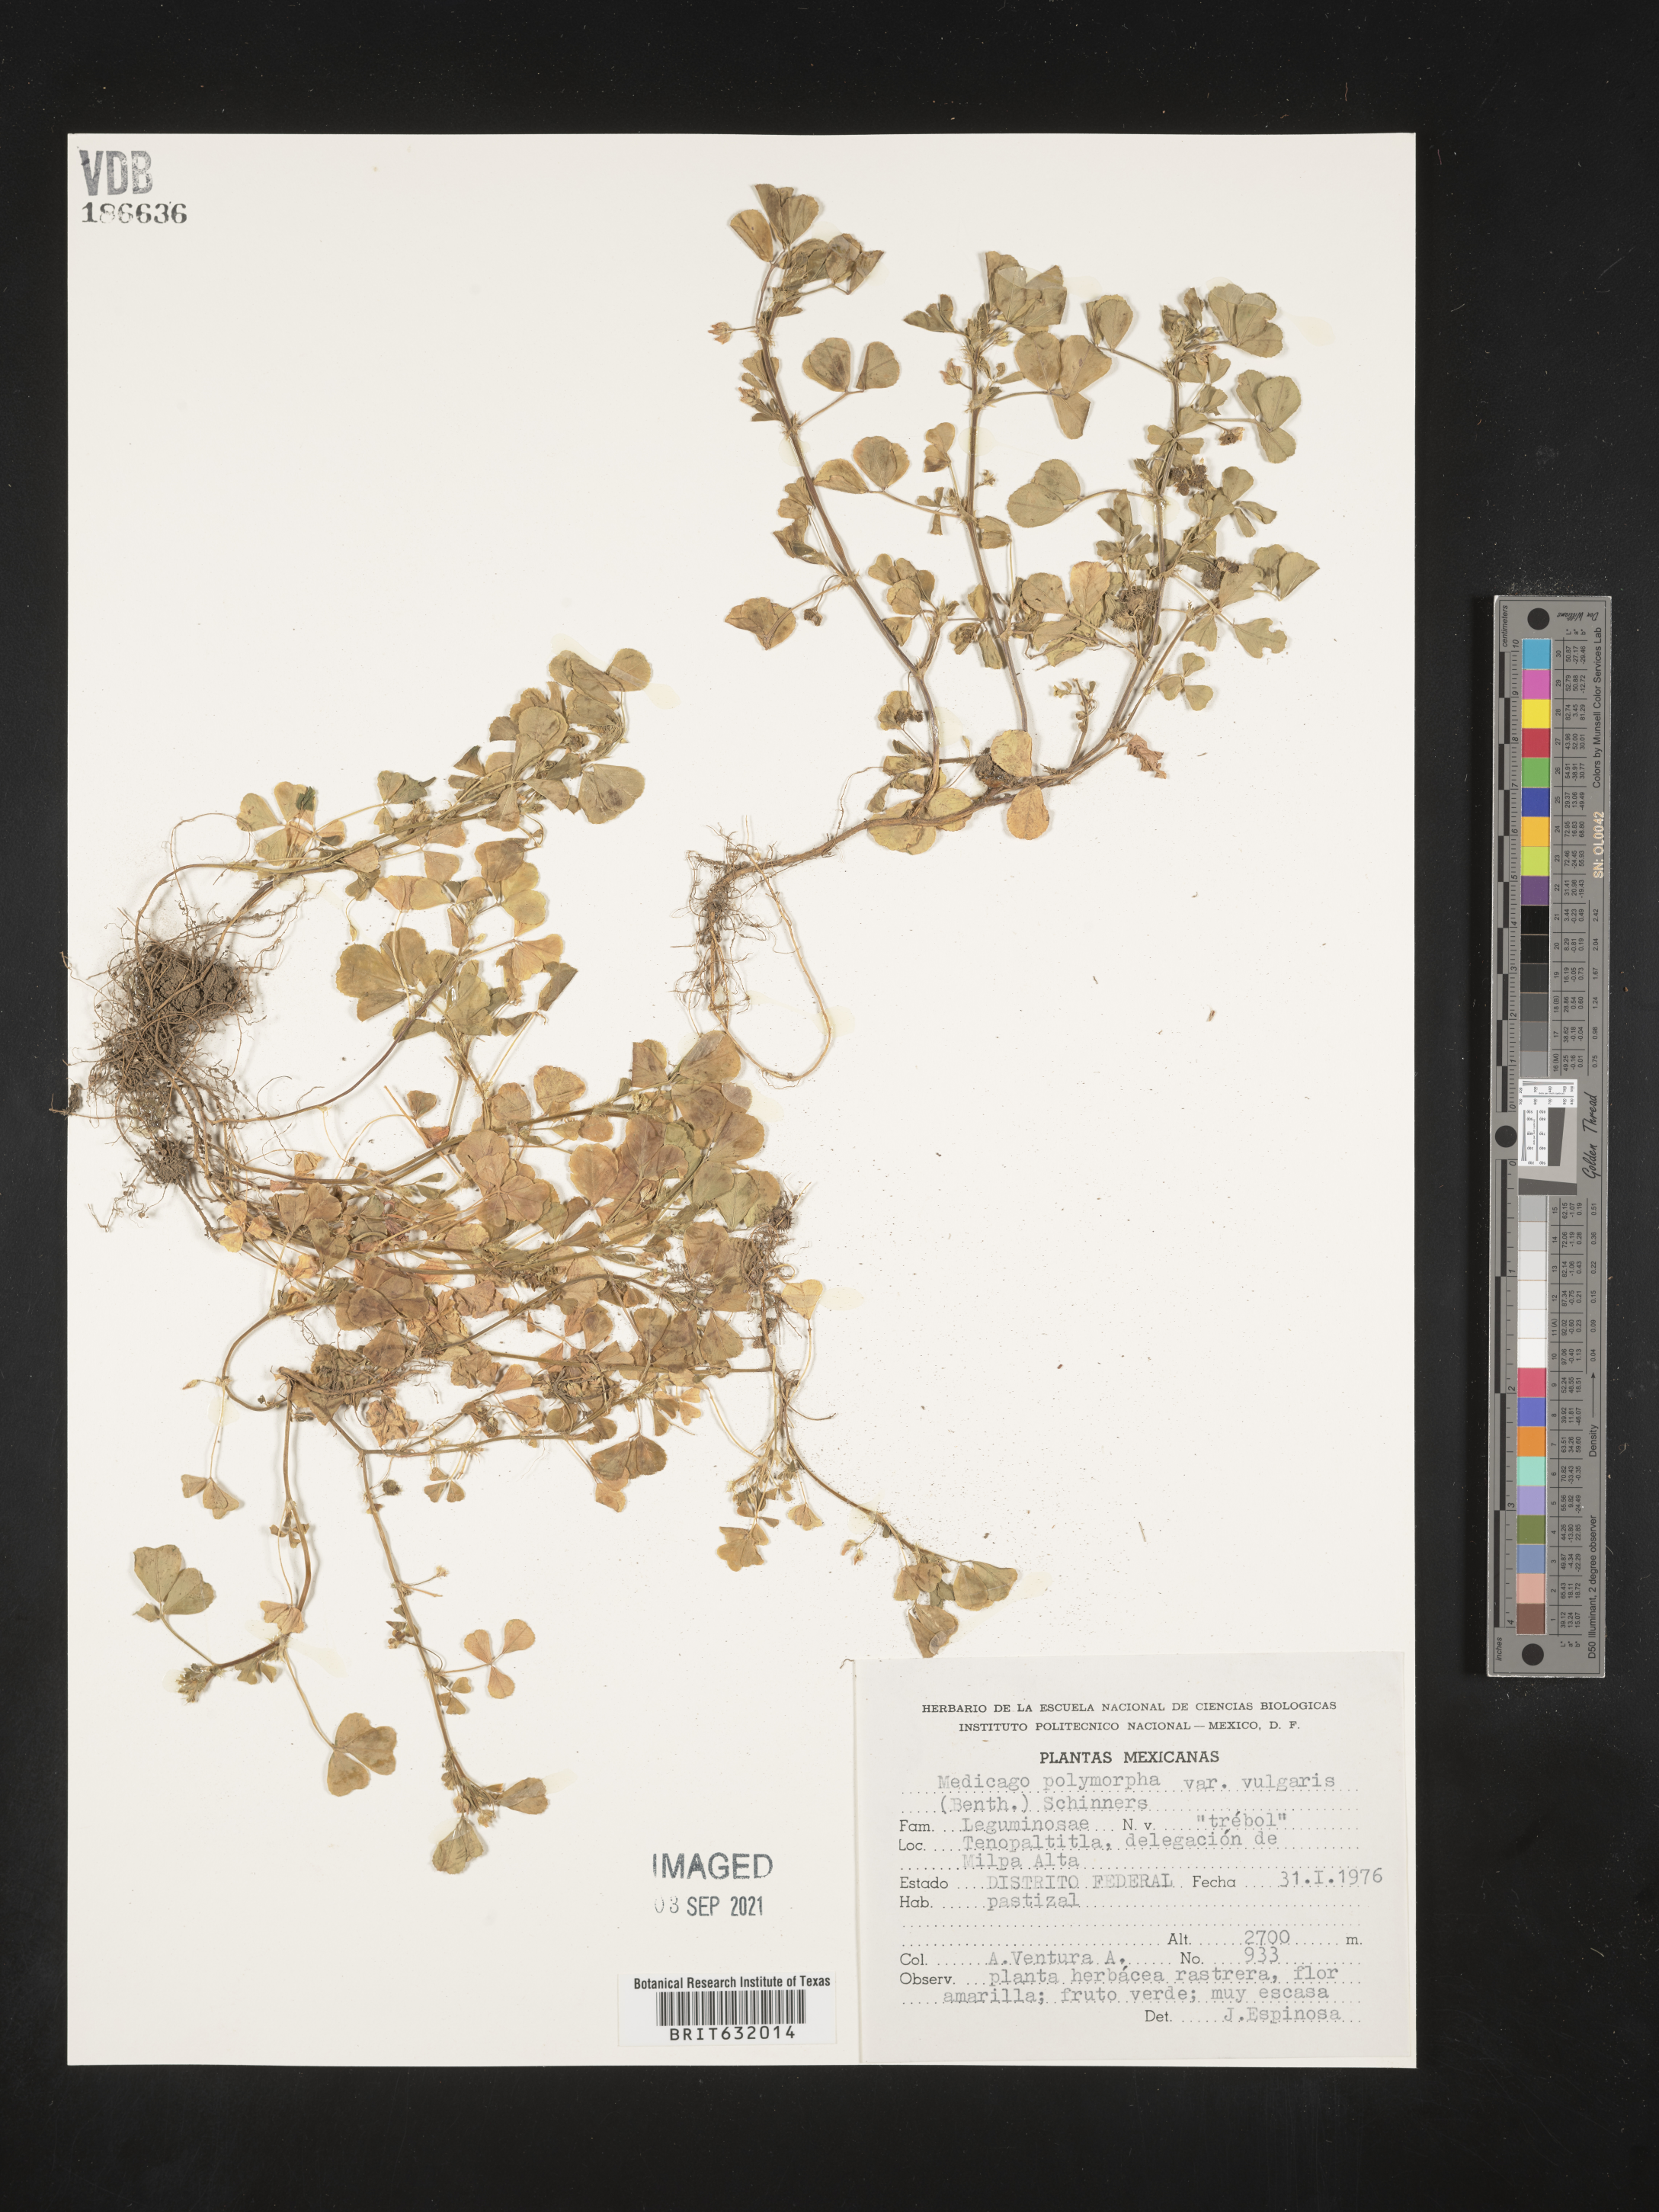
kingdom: Plantae
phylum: Tracheophyta
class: Magnoliopsida
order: Fabales
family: Fabaceae
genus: Medicago
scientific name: Medicago
